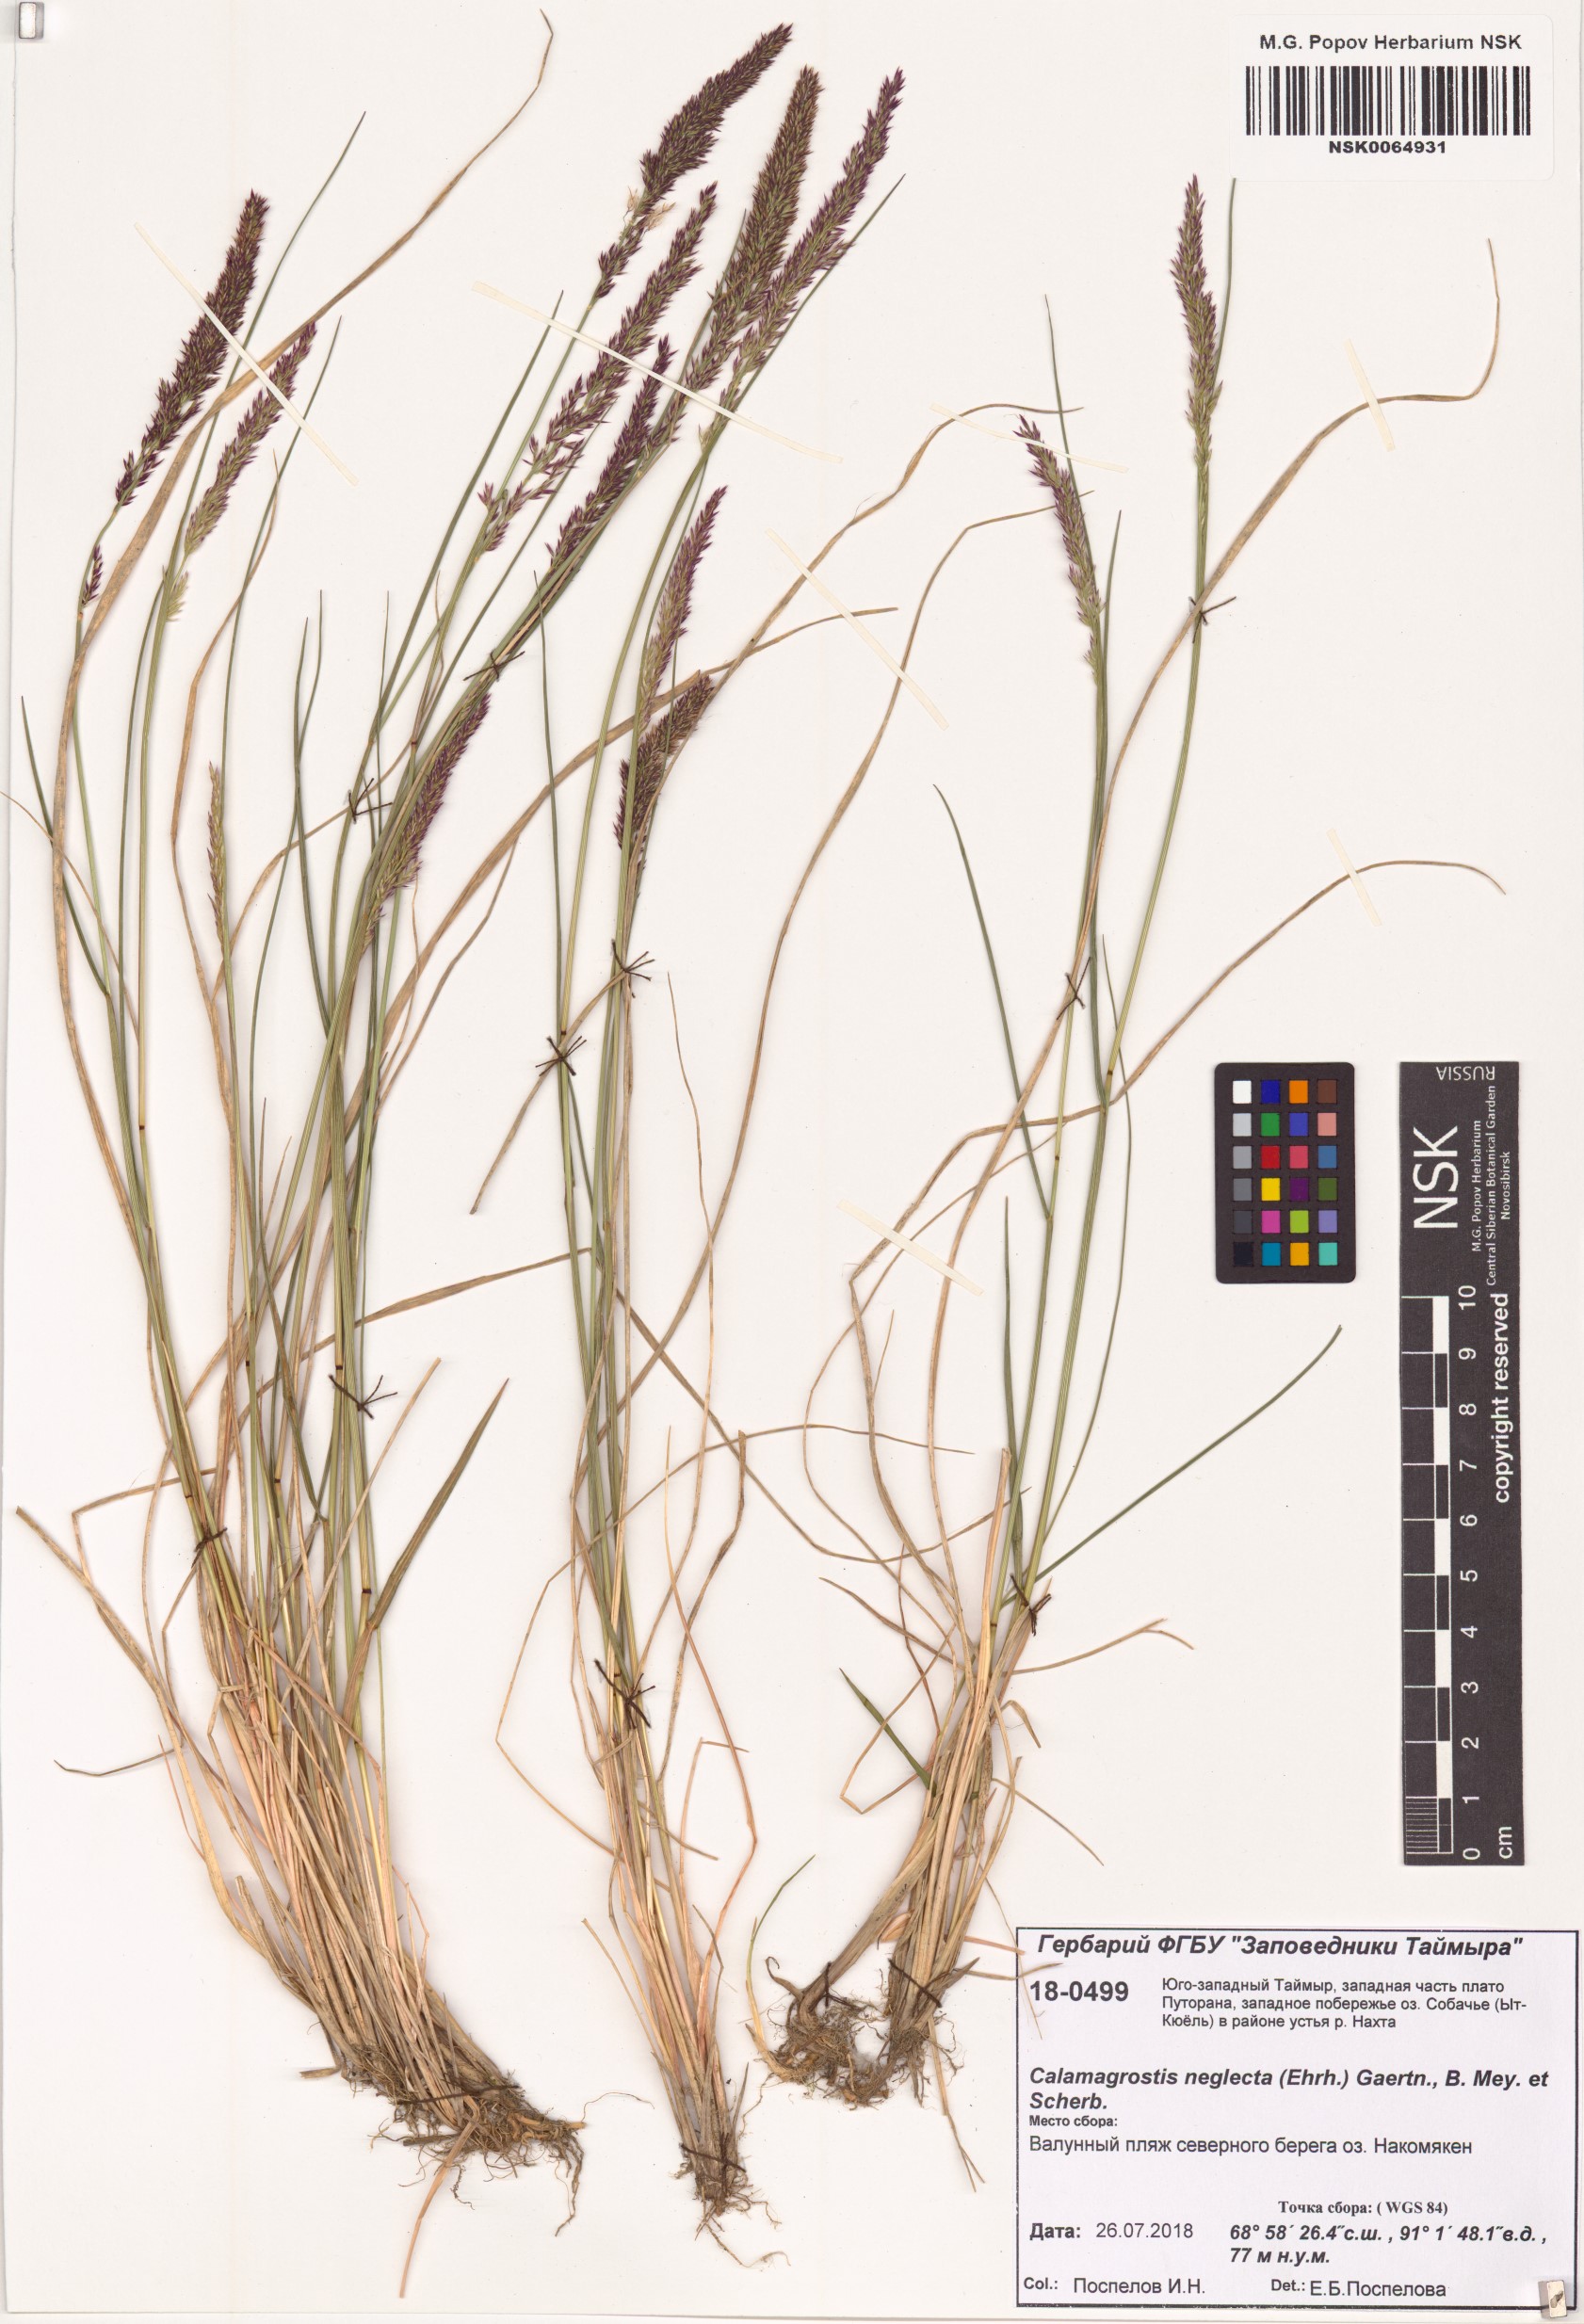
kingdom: Plantae
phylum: Tracheophyta
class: Liliopsida
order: Poales
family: Poaceae
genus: Achnatherum
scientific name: Achnatherum calamagrostis
